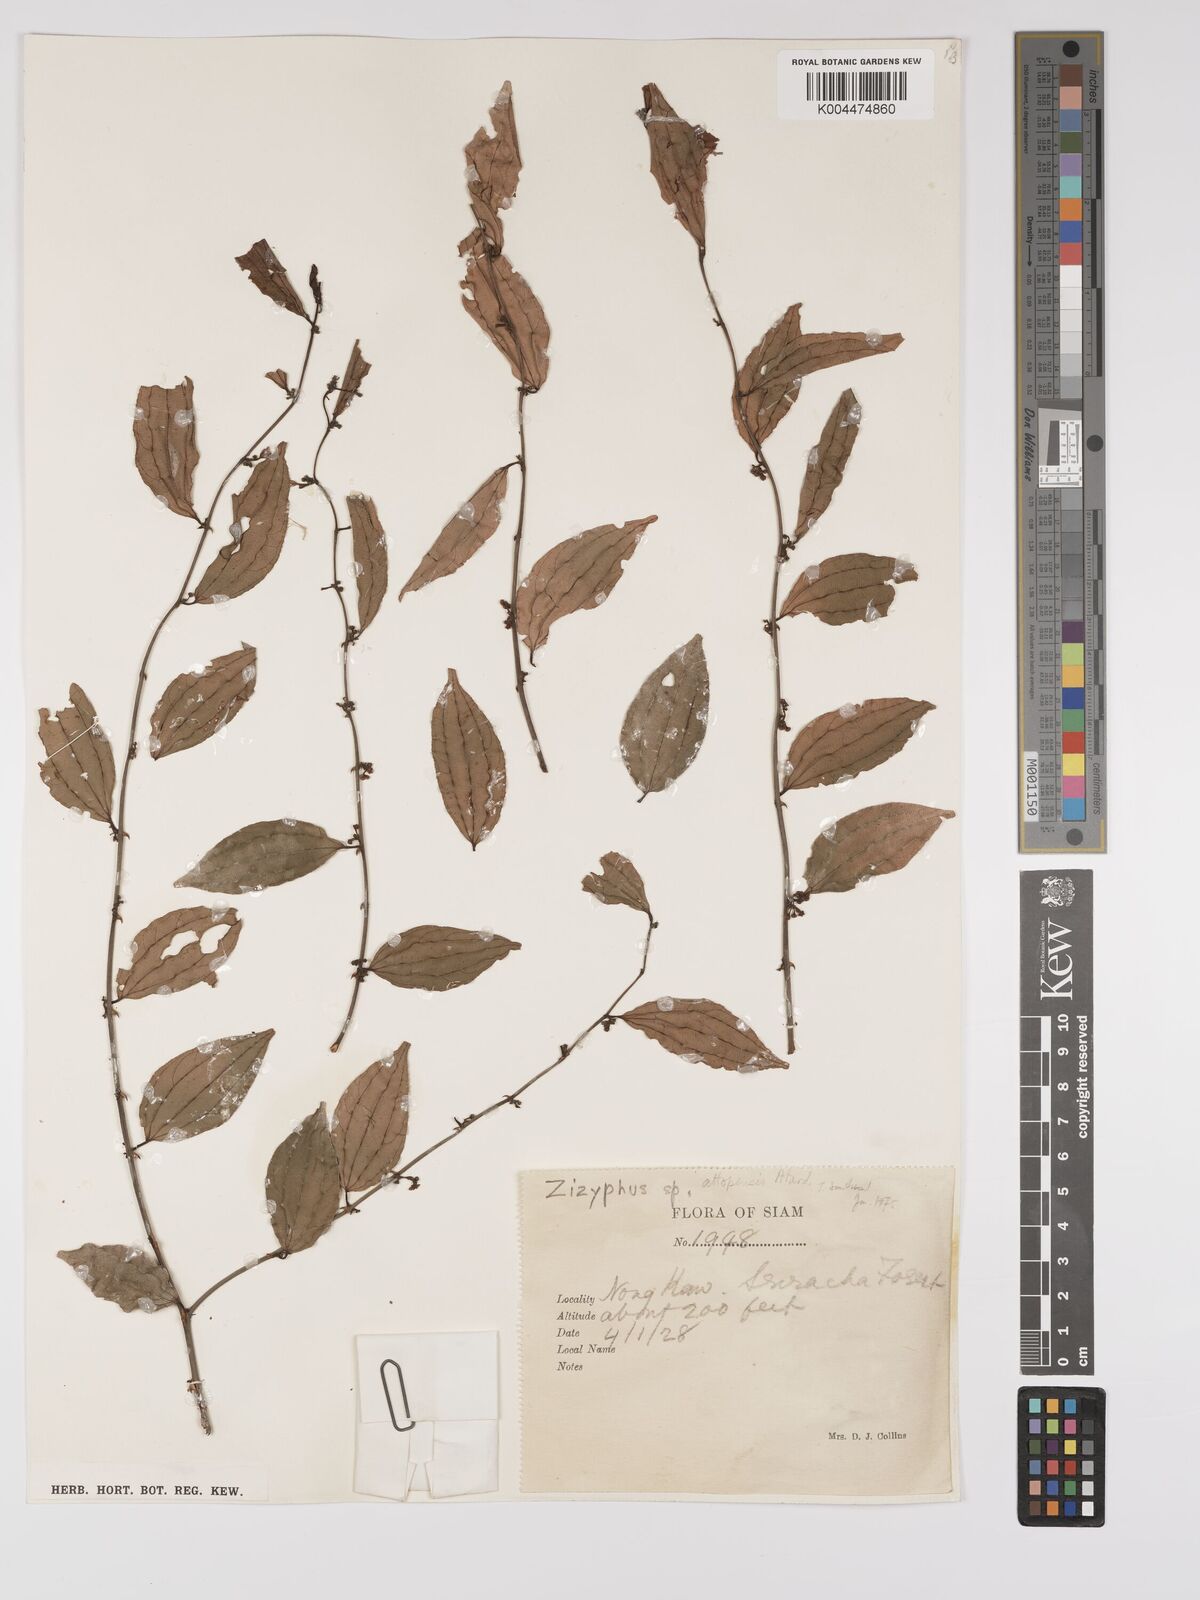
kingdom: Plantae
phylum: Tracheophyta
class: Magnoliopsida
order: Rosales
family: Rhamnaceae
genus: Ziziphus
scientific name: Ziziphus
